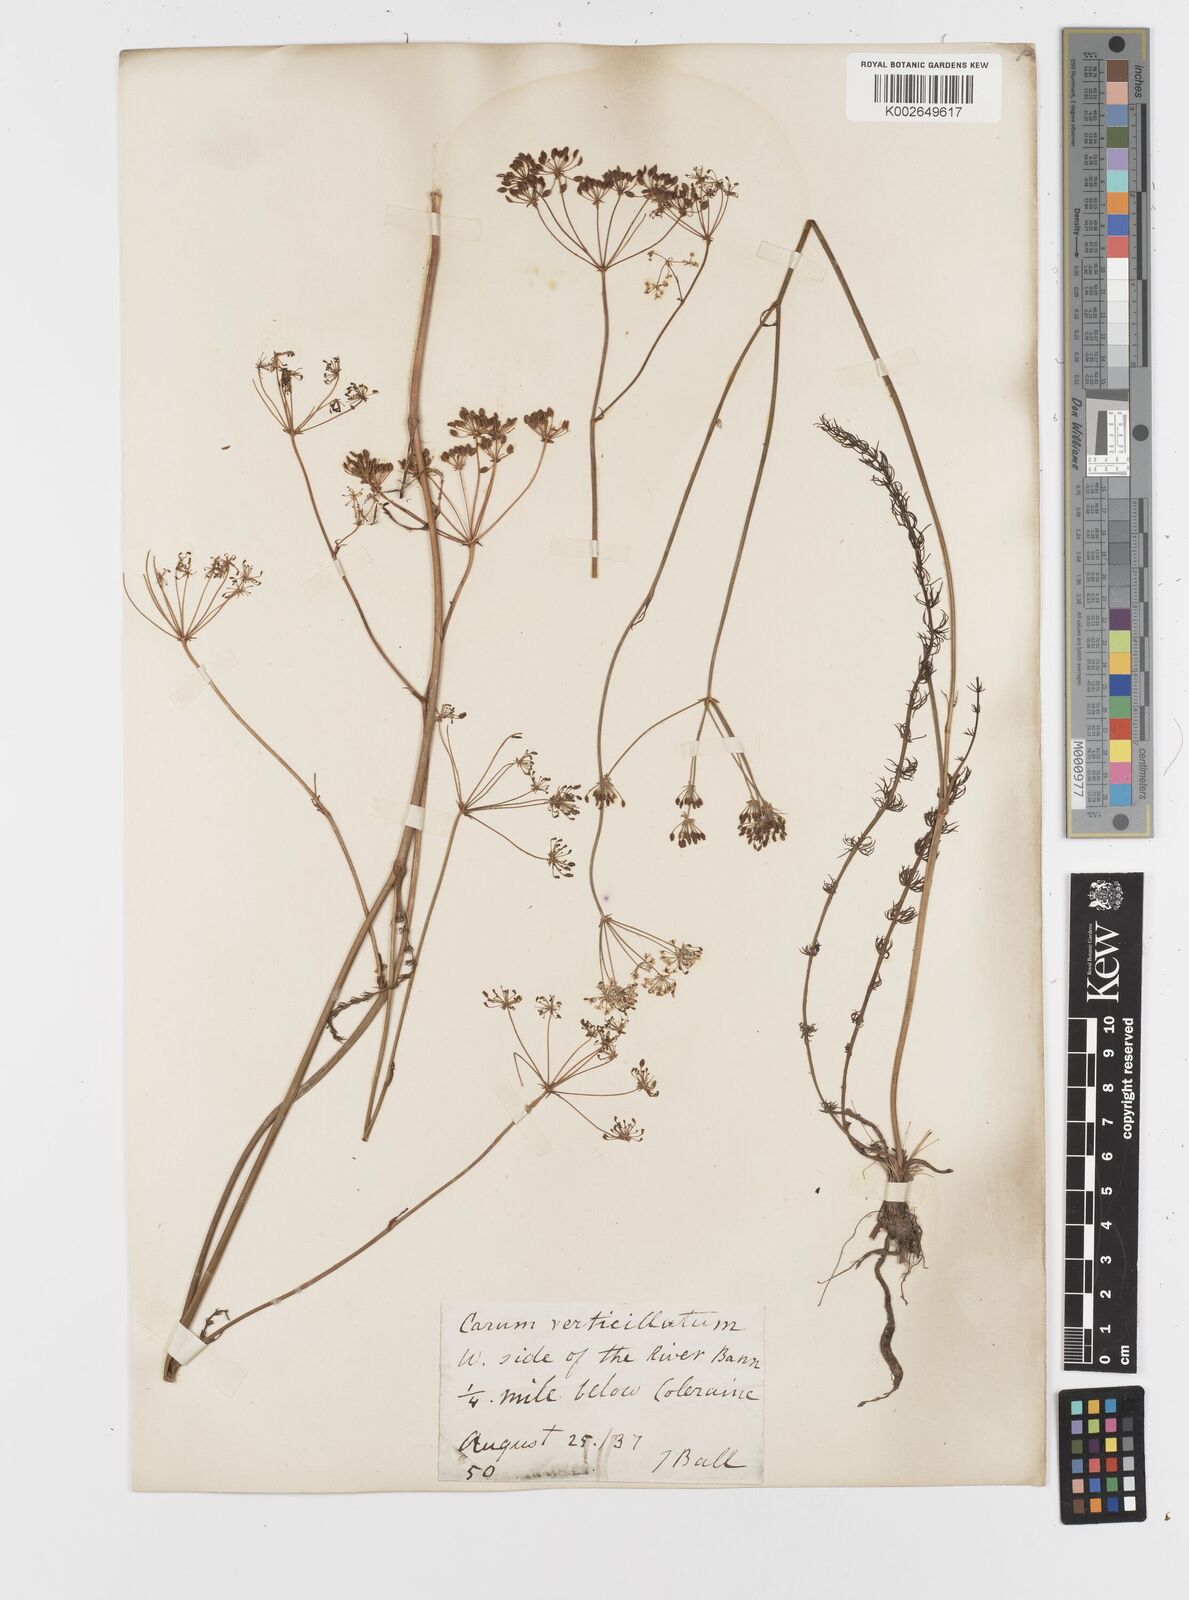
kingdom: Plantae
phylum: Tracheophyta
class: Magnoliopsida
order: Apiales
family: Apiaceae
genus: Trocdaris
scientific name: Trocdaris verticillatum
